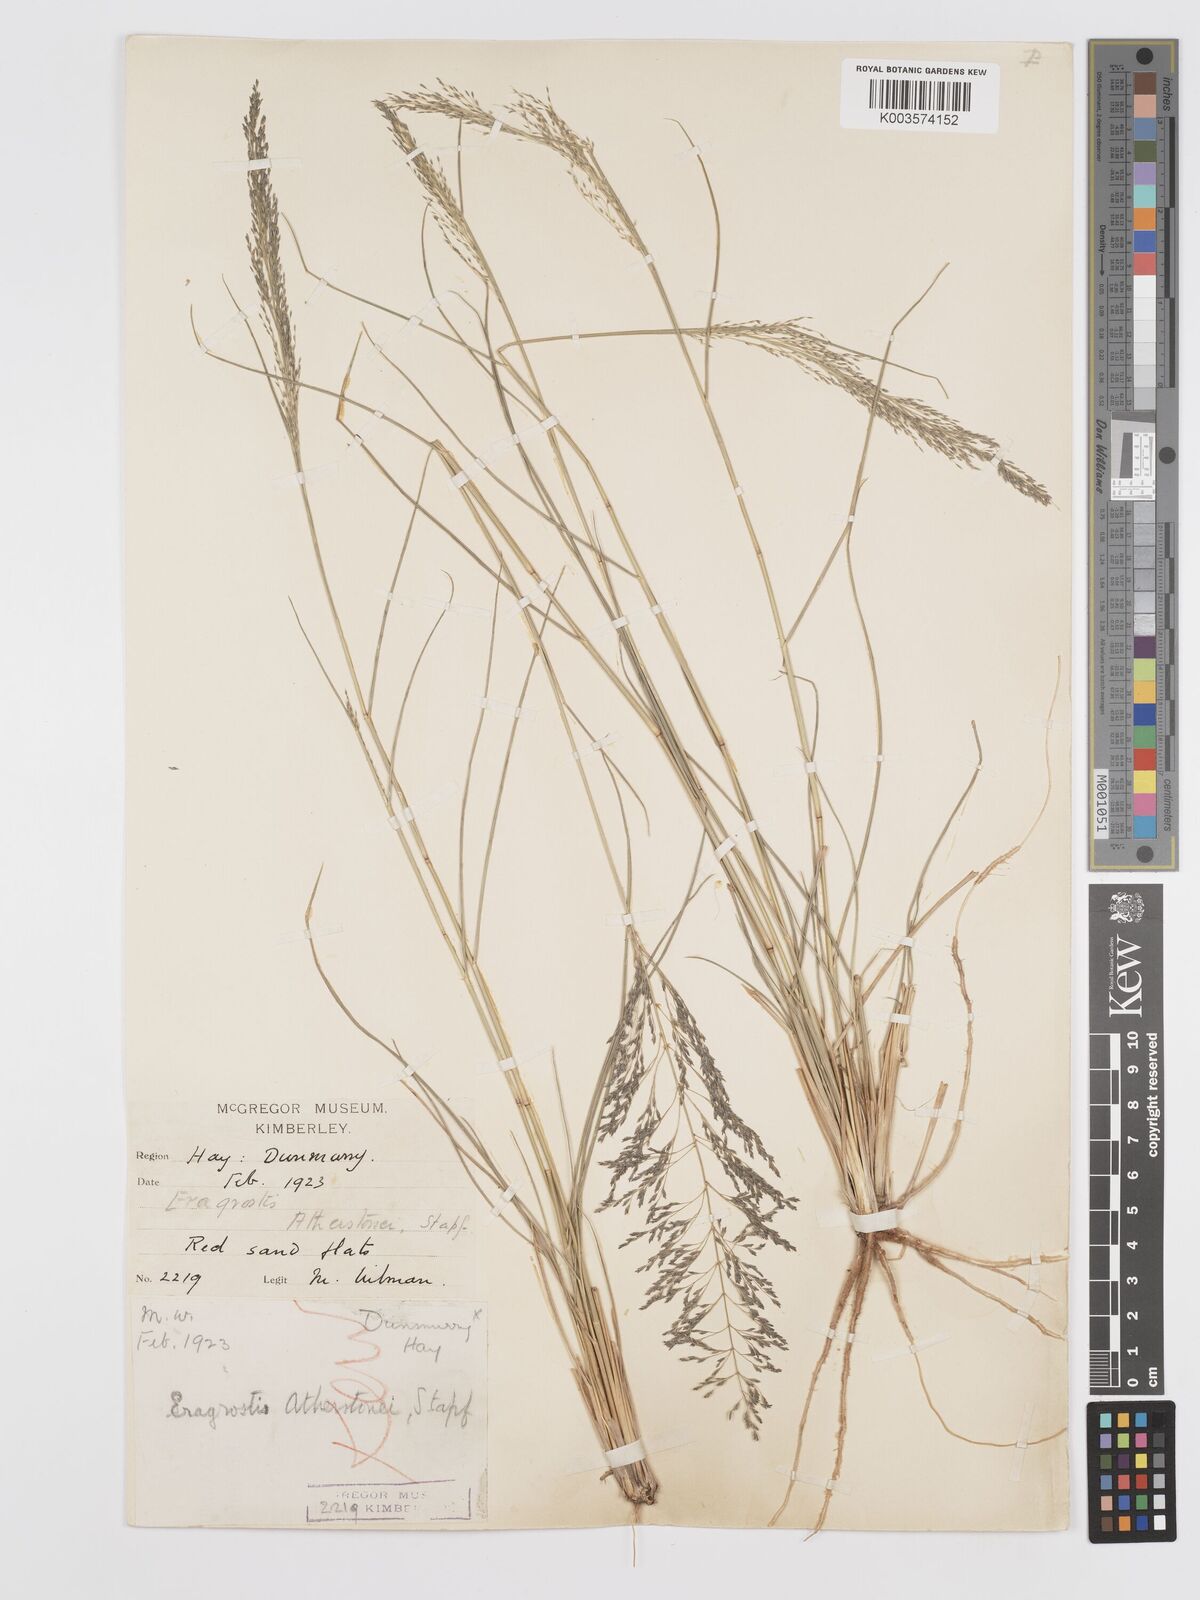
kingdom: Plantae
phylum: Tracheophyta
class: Liliopsida
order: Poales
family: Poaceae
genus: Eragrostis
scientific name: Eragrostis cylindriflora
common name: Cylinderflower lovegrass
